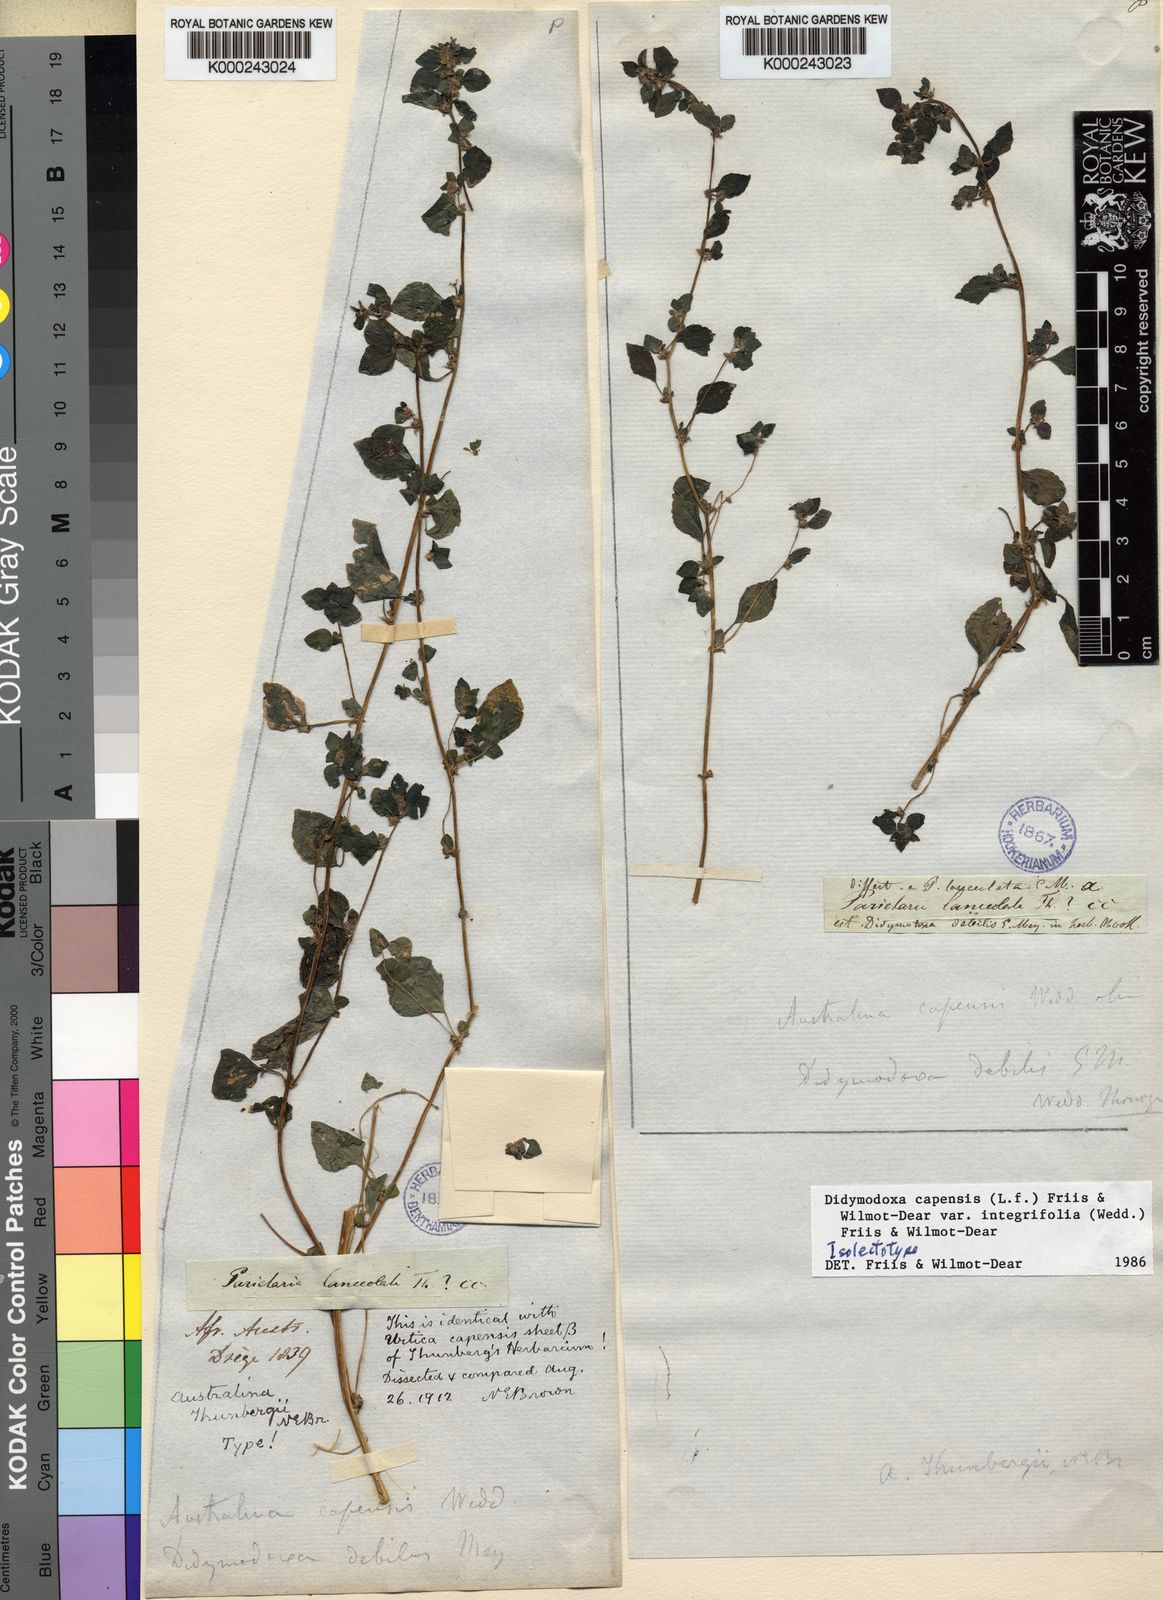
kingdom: Plantae
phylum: Tracheophyta
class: Magnoliopsida
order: Rosales
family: Urticaceae
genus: Didymodoxa
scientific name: Didymodoxa capensis
